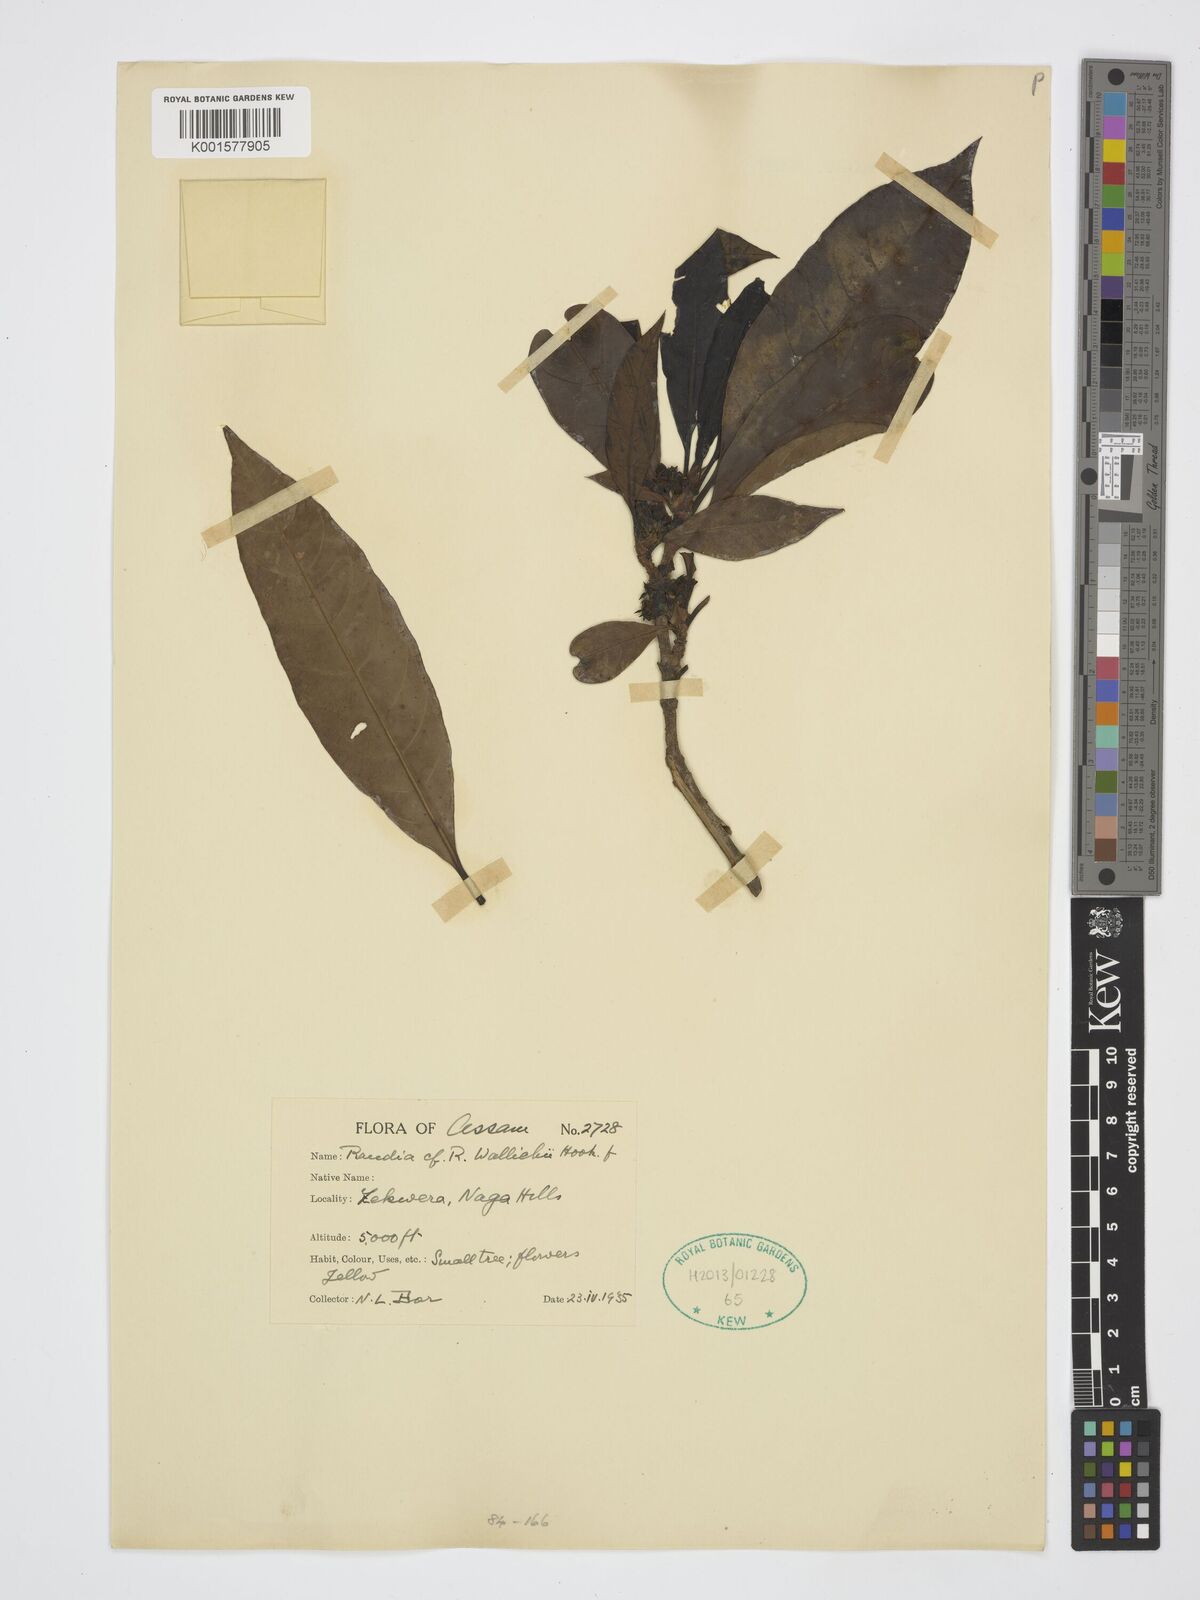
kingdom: Plantae
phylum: Tracheophyta
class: Magnoliopsida
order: Gentianales
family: Rubiaceae
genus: Tarennoidea
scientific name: Tarennoidea wallichii
